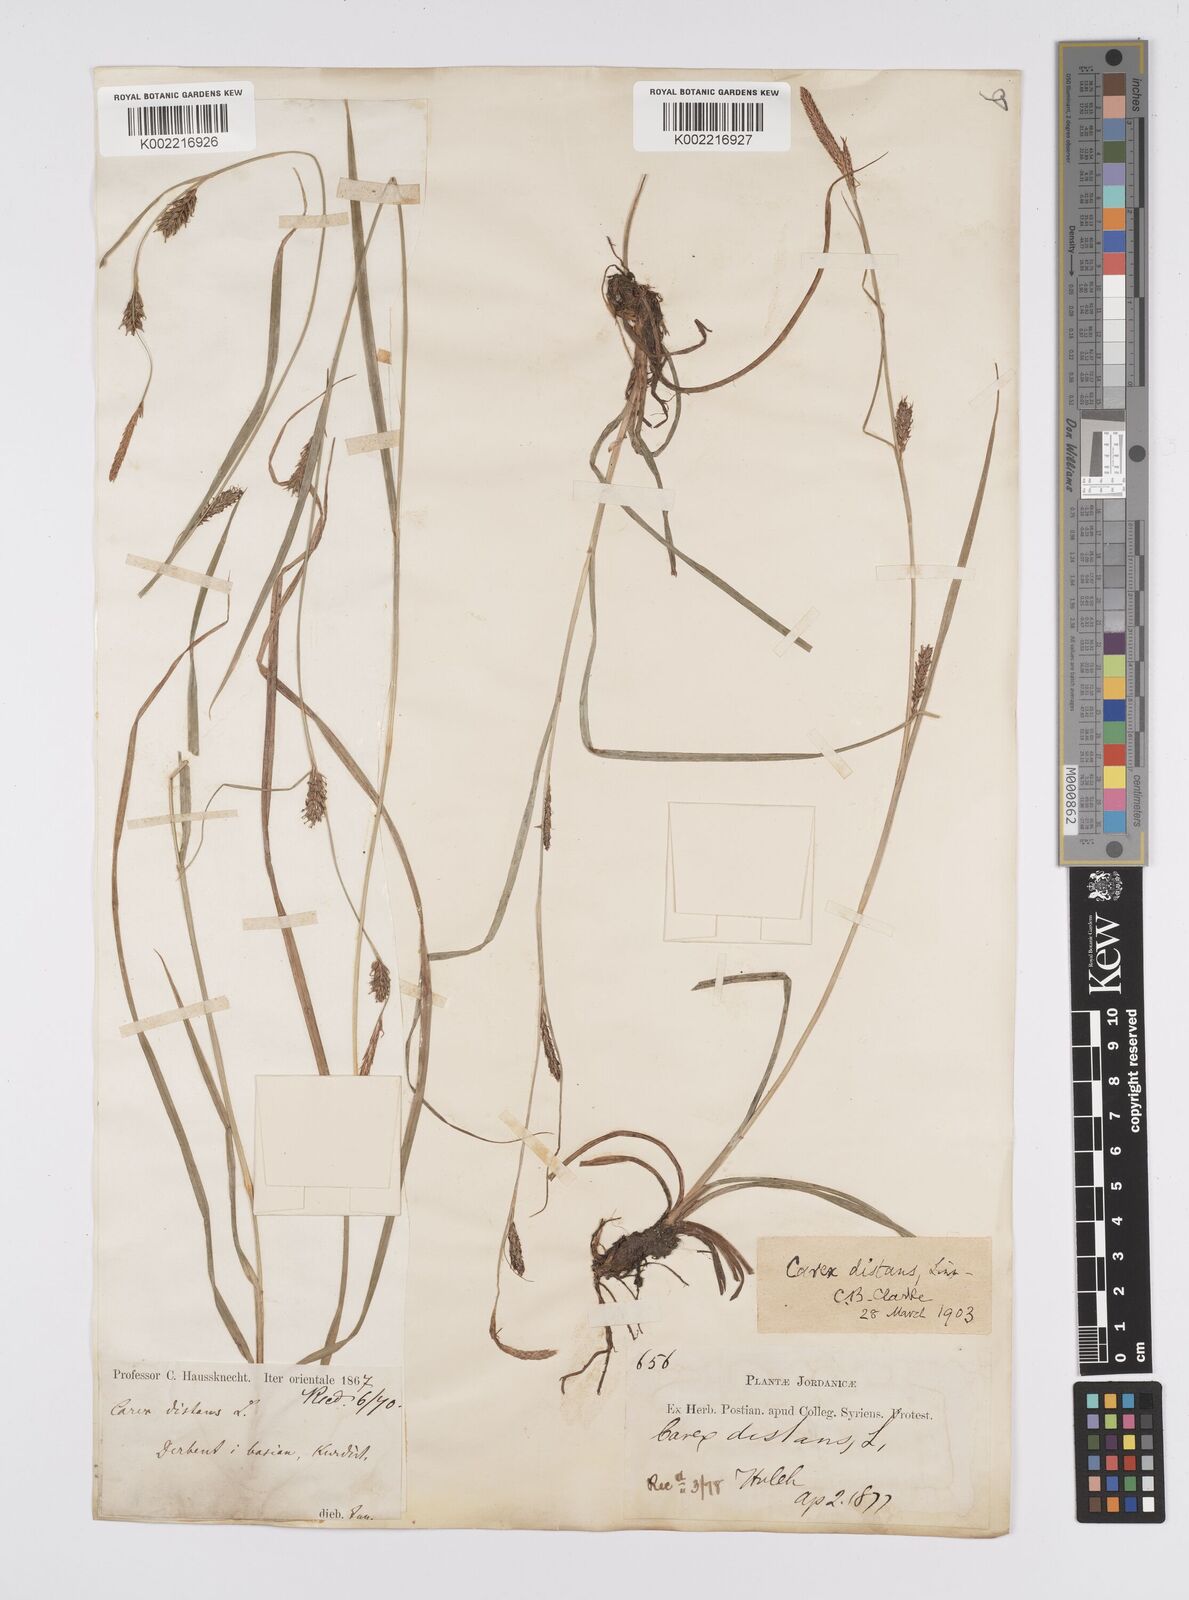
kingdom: Plantae
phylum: Tracheophyta
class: Liliopsida
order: Poales
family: Cyperaceae
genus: Carex
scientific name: Carex distans
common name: Distant sedge
